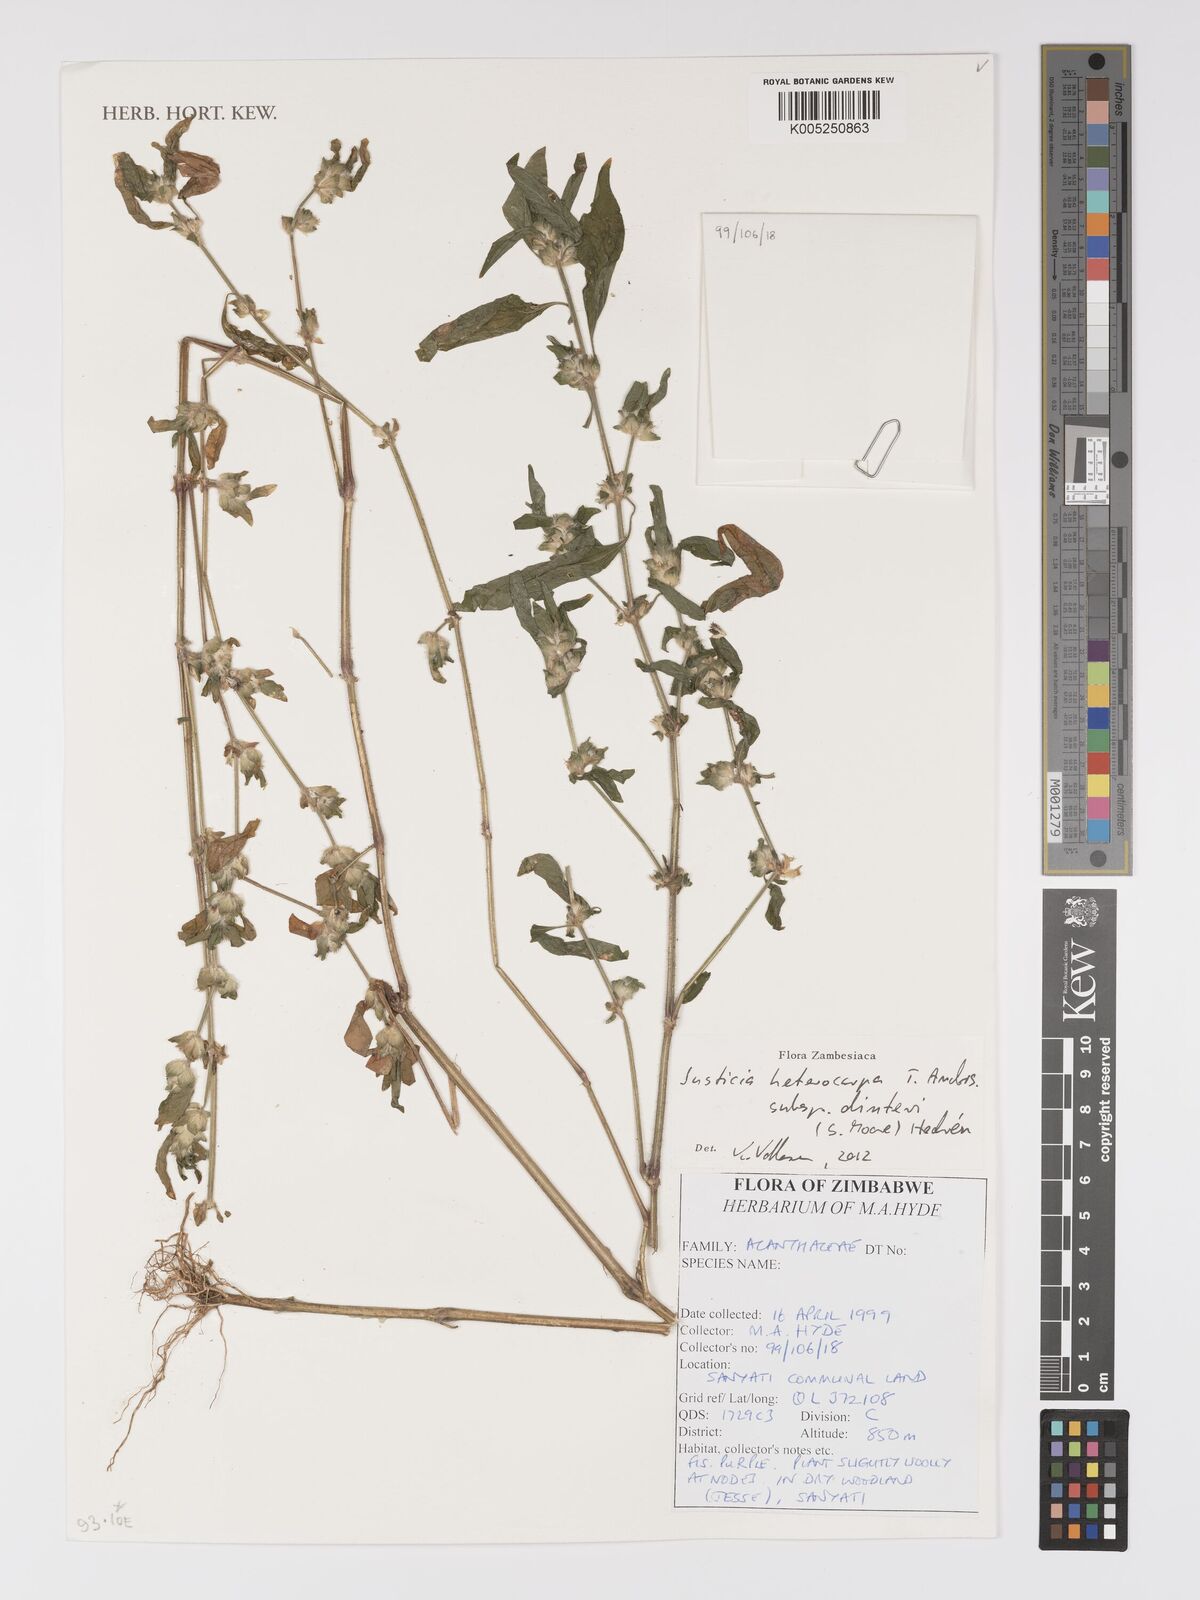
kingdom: Plantae
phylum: Tracheophyta
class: Magnoliopsida
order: Lamiales
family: Acanthaceae
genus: Justicia
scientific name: Justicia heterocarpa
